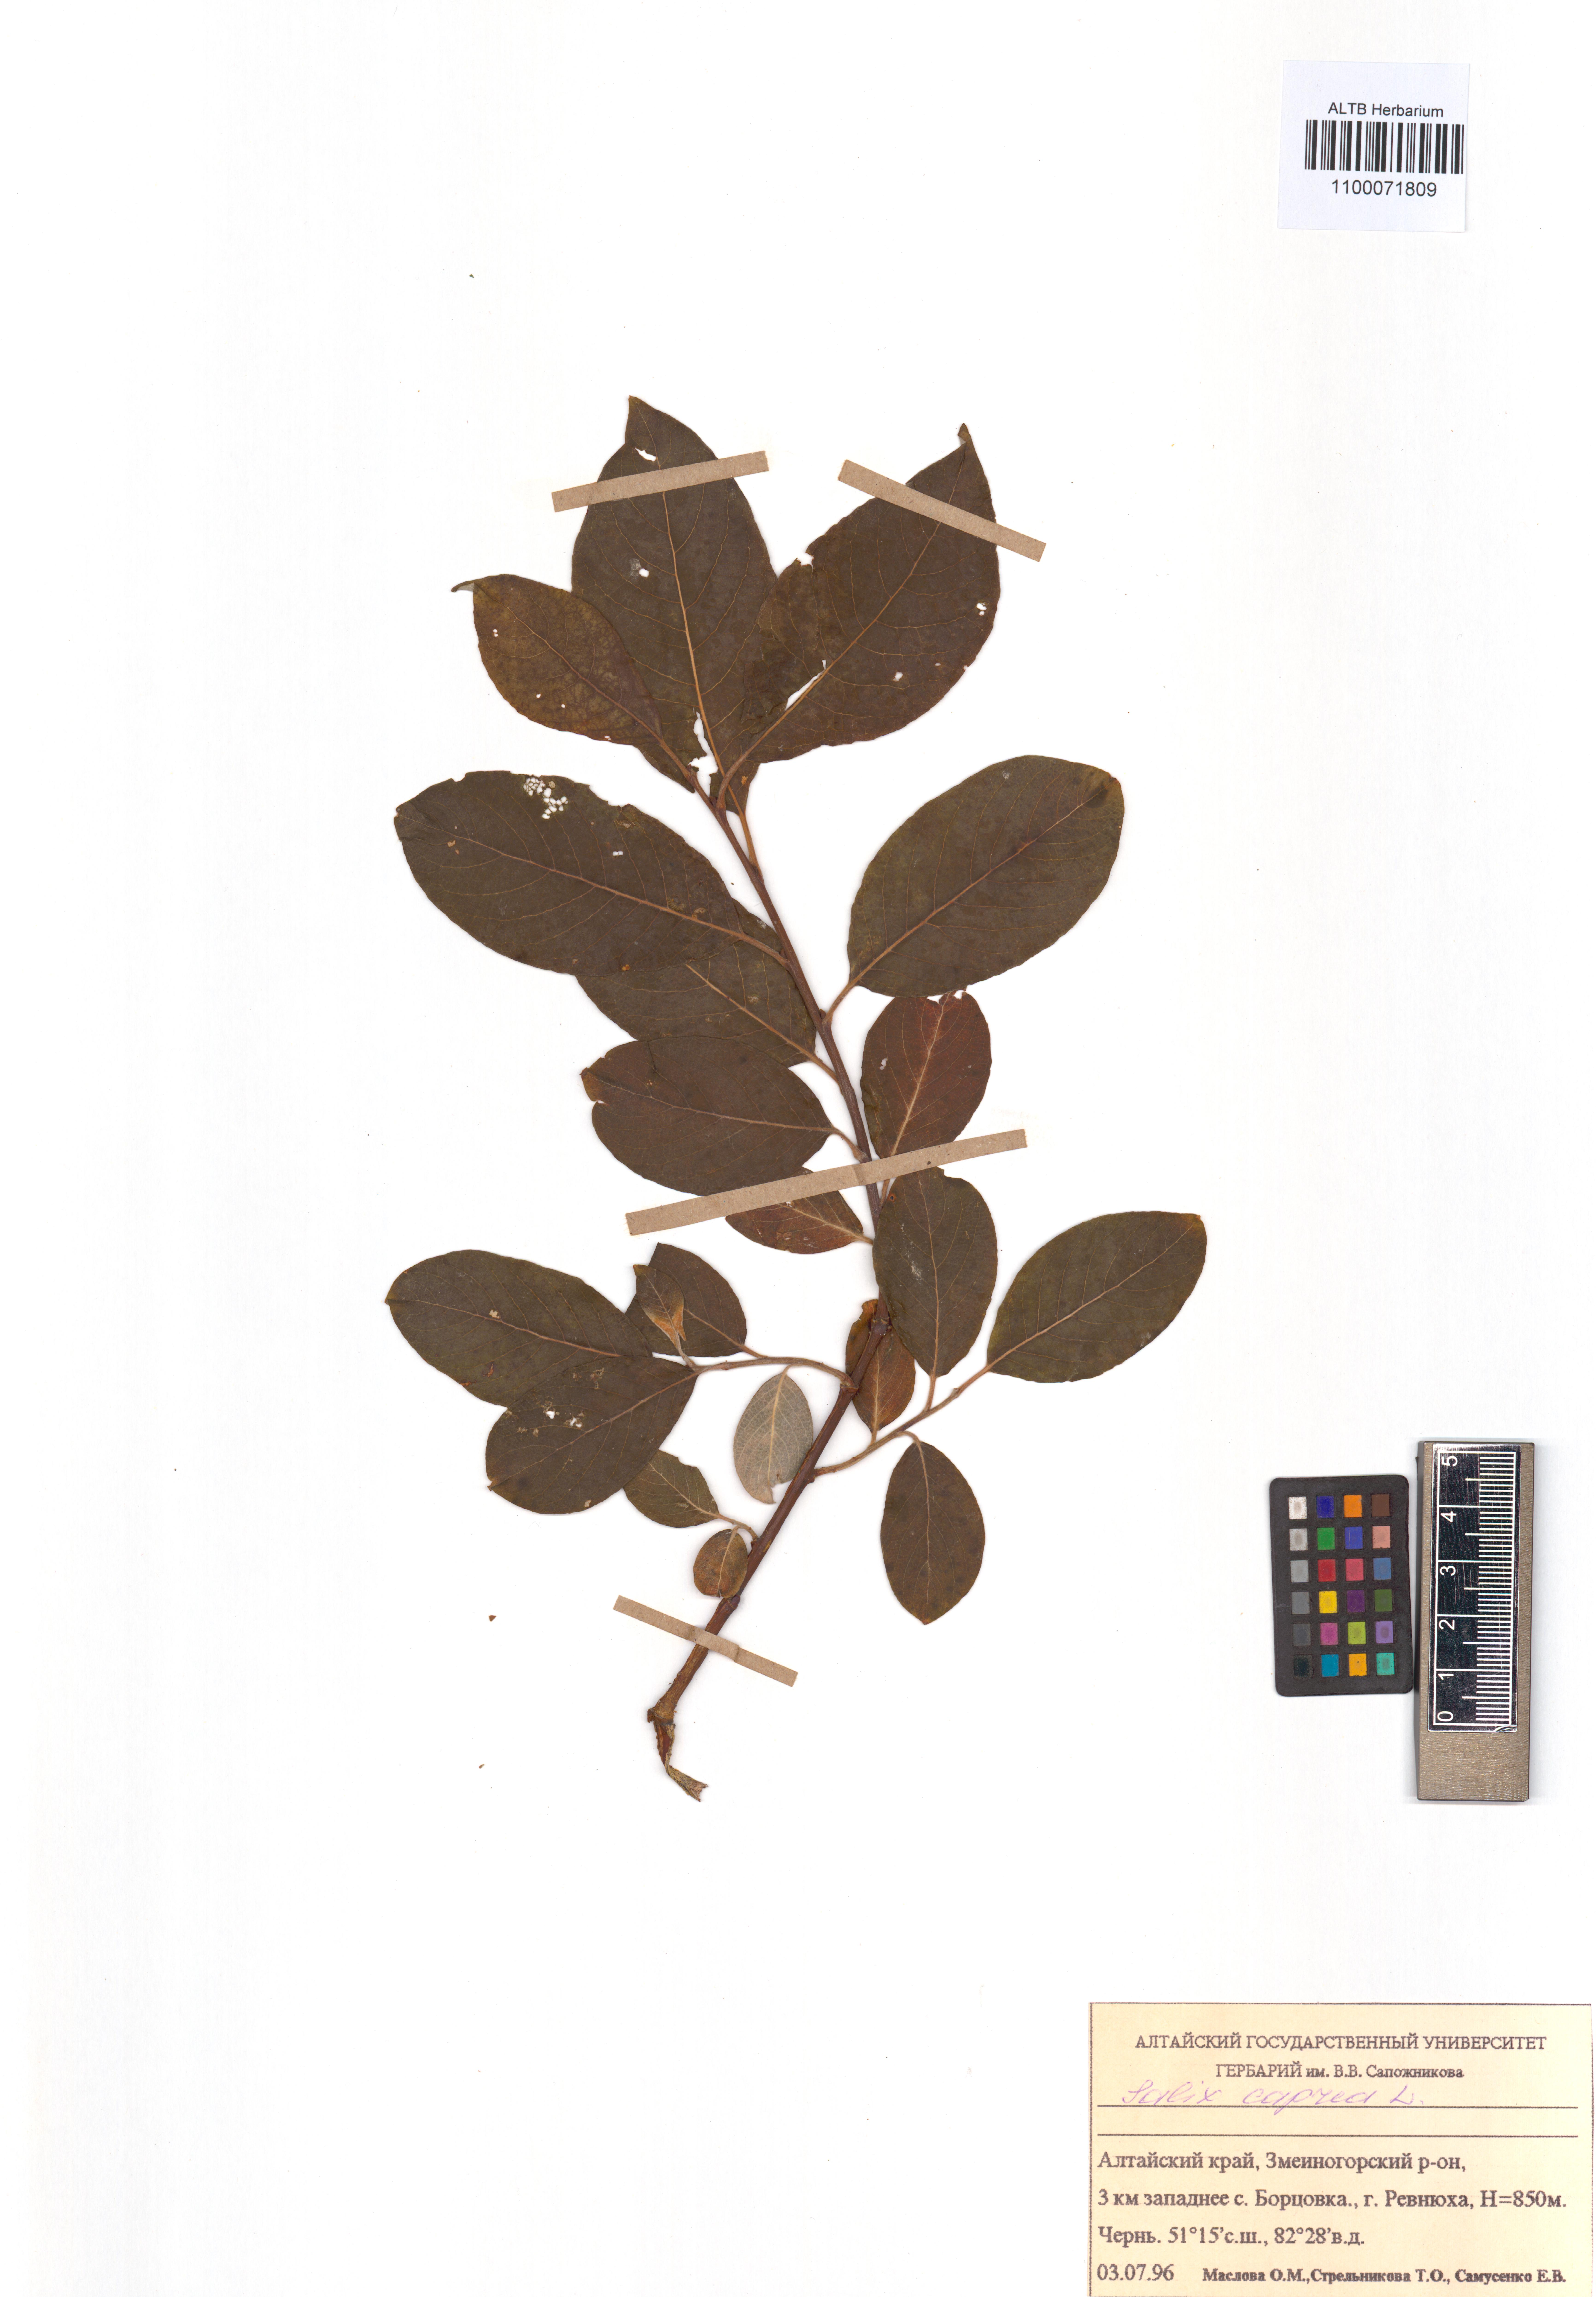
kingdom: Plantae
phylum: Tracheophyta
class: Magnoliopsida
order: Malpighiales
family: Salicaceae
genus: Salix
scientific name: Salix caprea
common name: Goat willow
